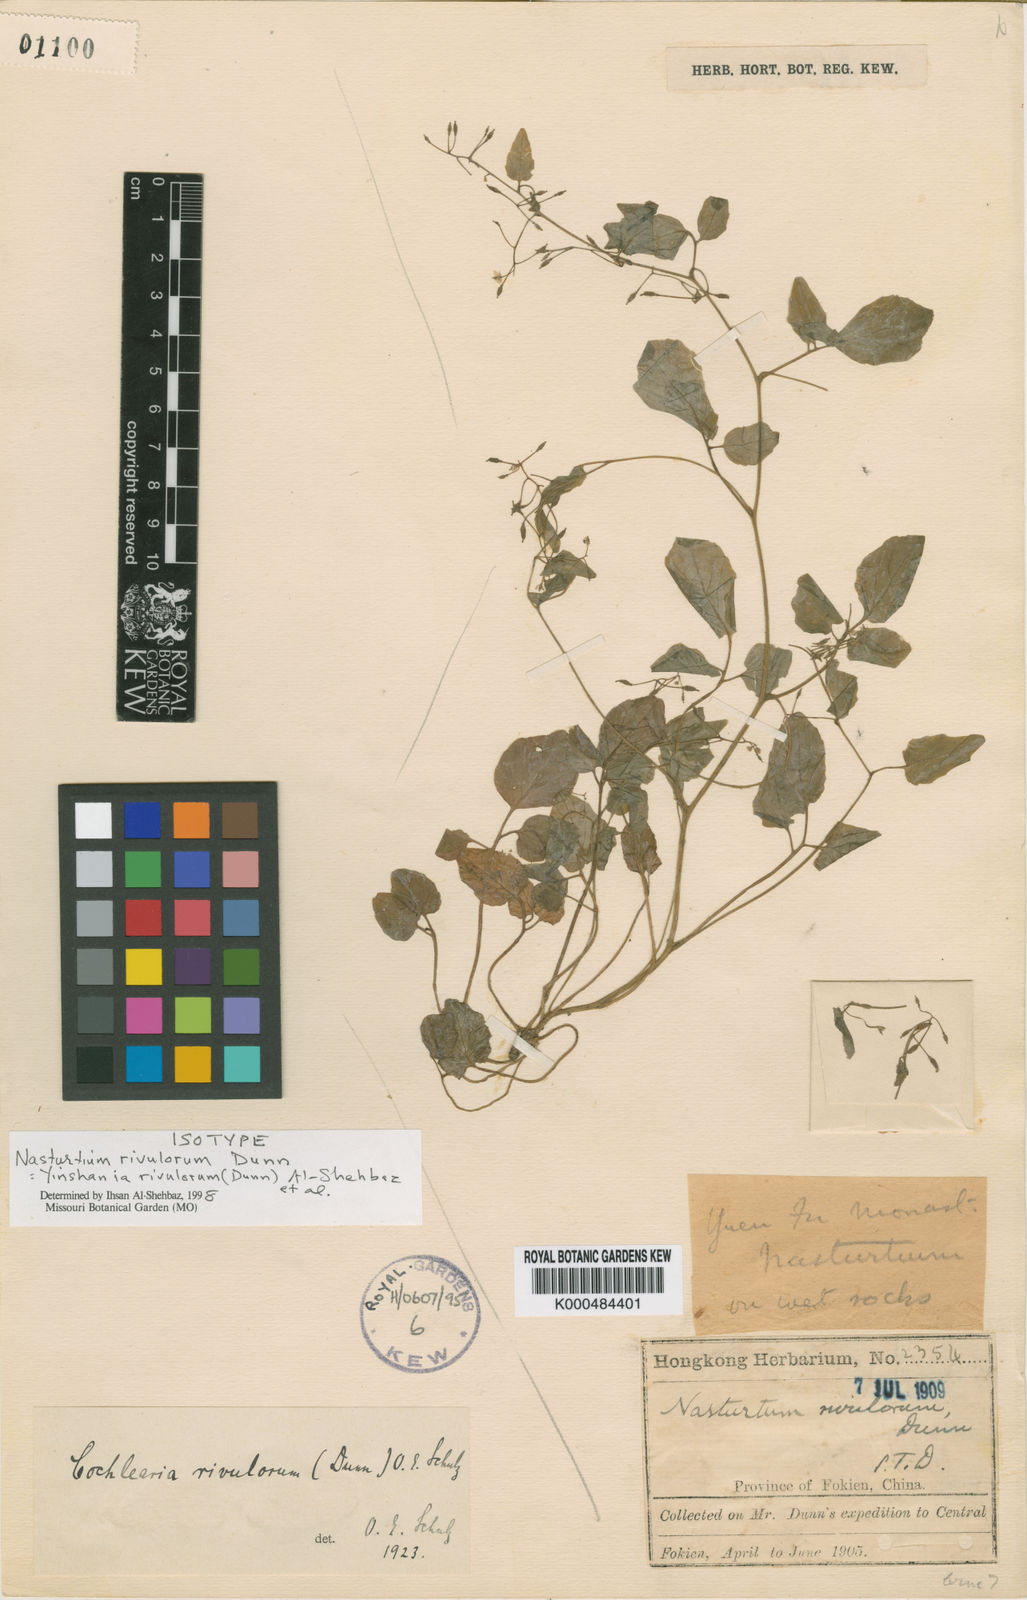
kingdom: Plantae
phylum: Tracheophyta
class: Magnoliopsida
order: Brassicales
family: Brassicaceae
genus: Yinshania
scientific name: Yinshania
